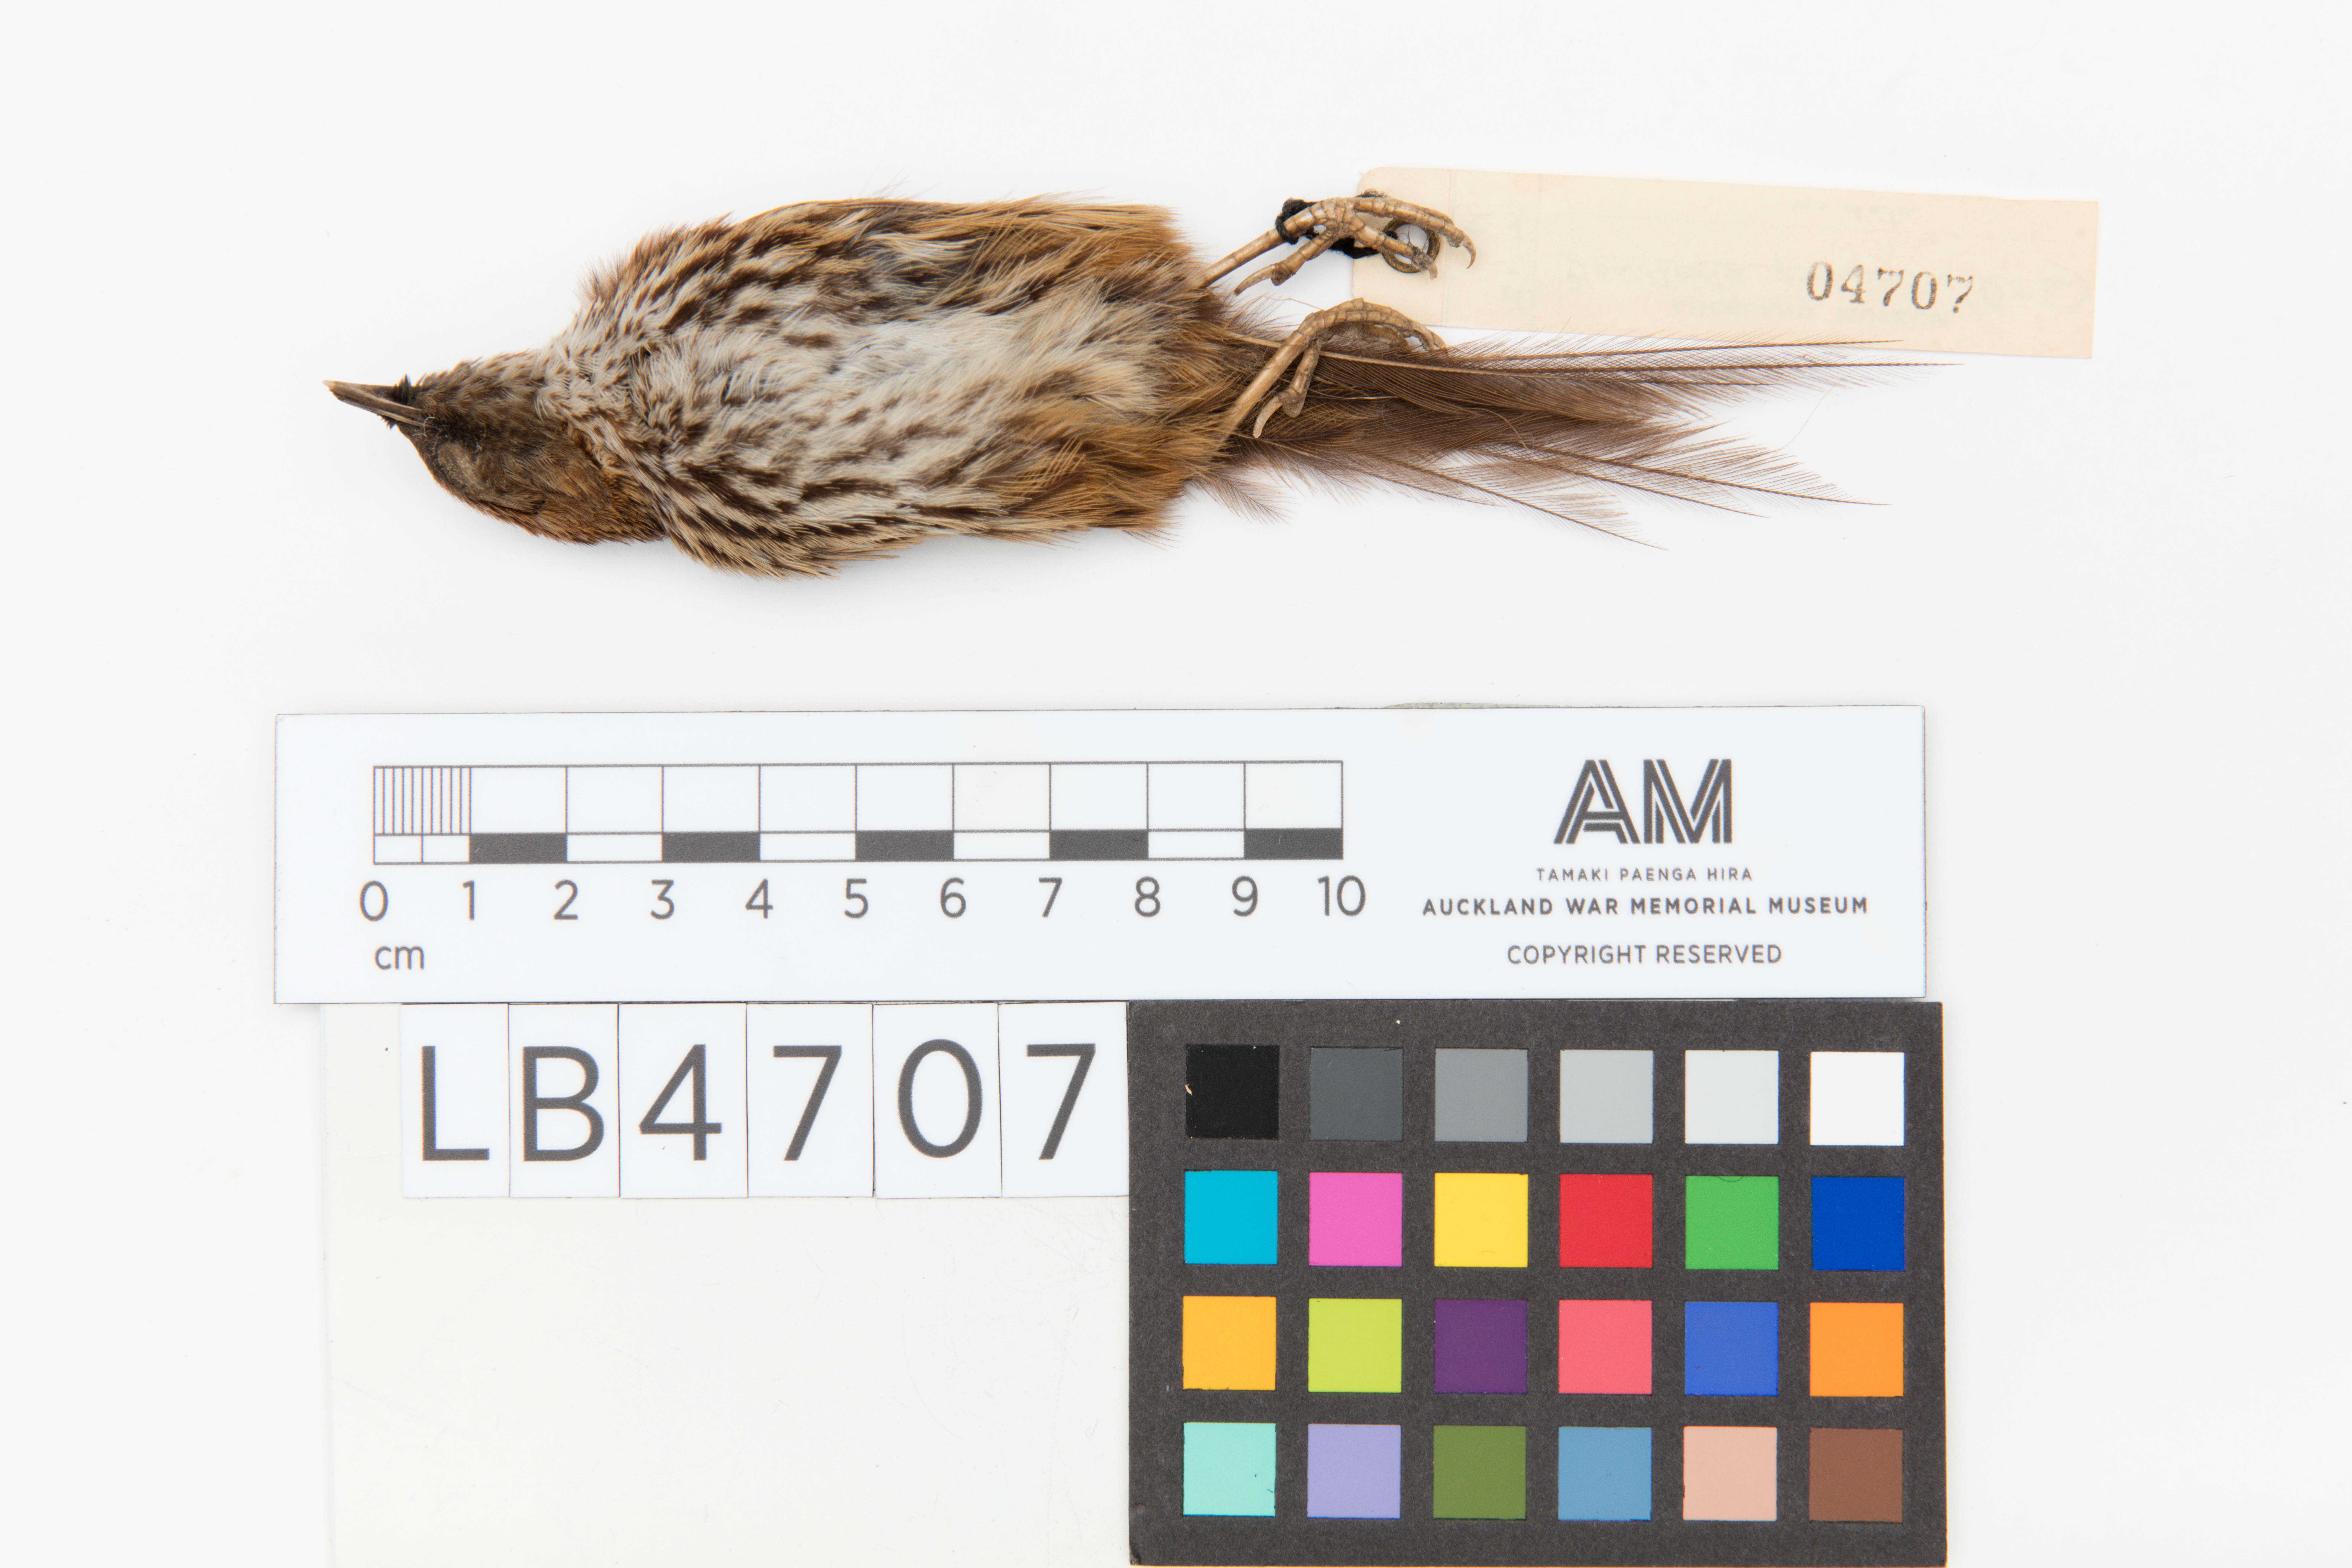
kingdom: Animalia
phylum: Chordata
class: Aves
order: Passeriformes
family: Locustellidae
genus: Megalurus
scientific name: Megalurus punctatus
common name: New zealand fernbird
